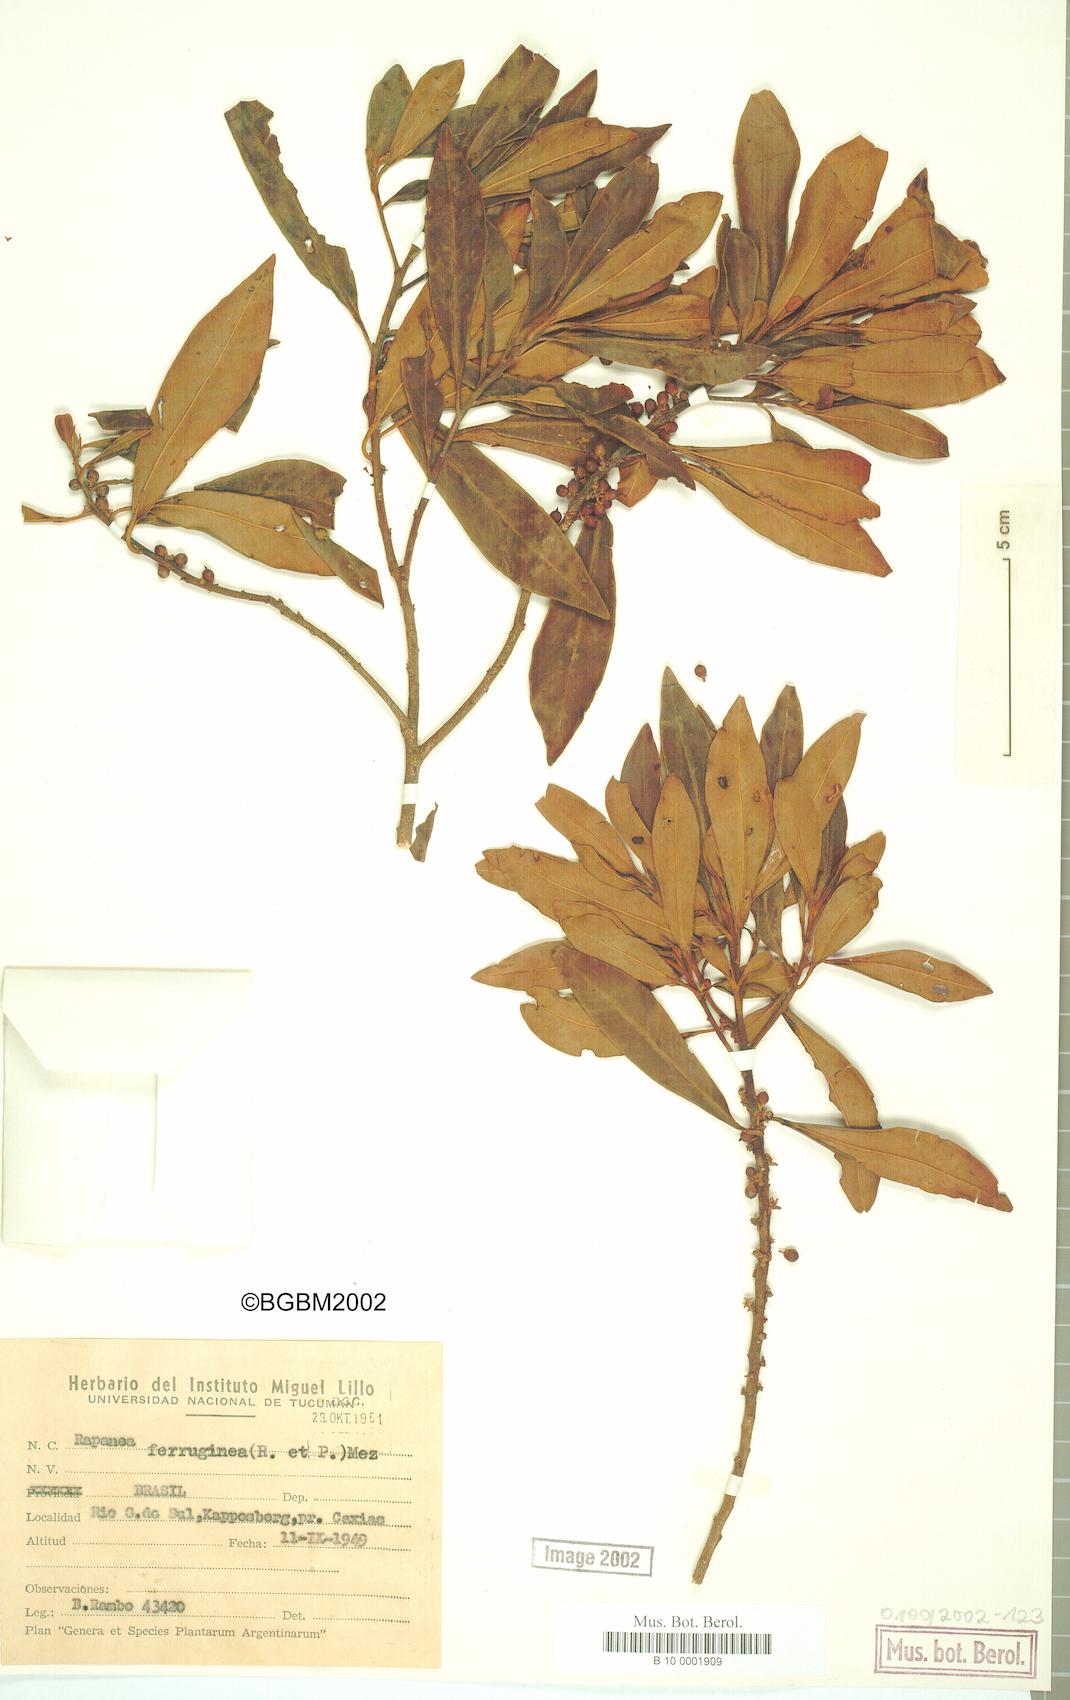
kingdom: Plantae
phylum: Tracheophyta
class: Magnoliopsida
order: Ericales
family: Primulaceae
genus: Myrsine
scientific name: Myrsine coriacea
